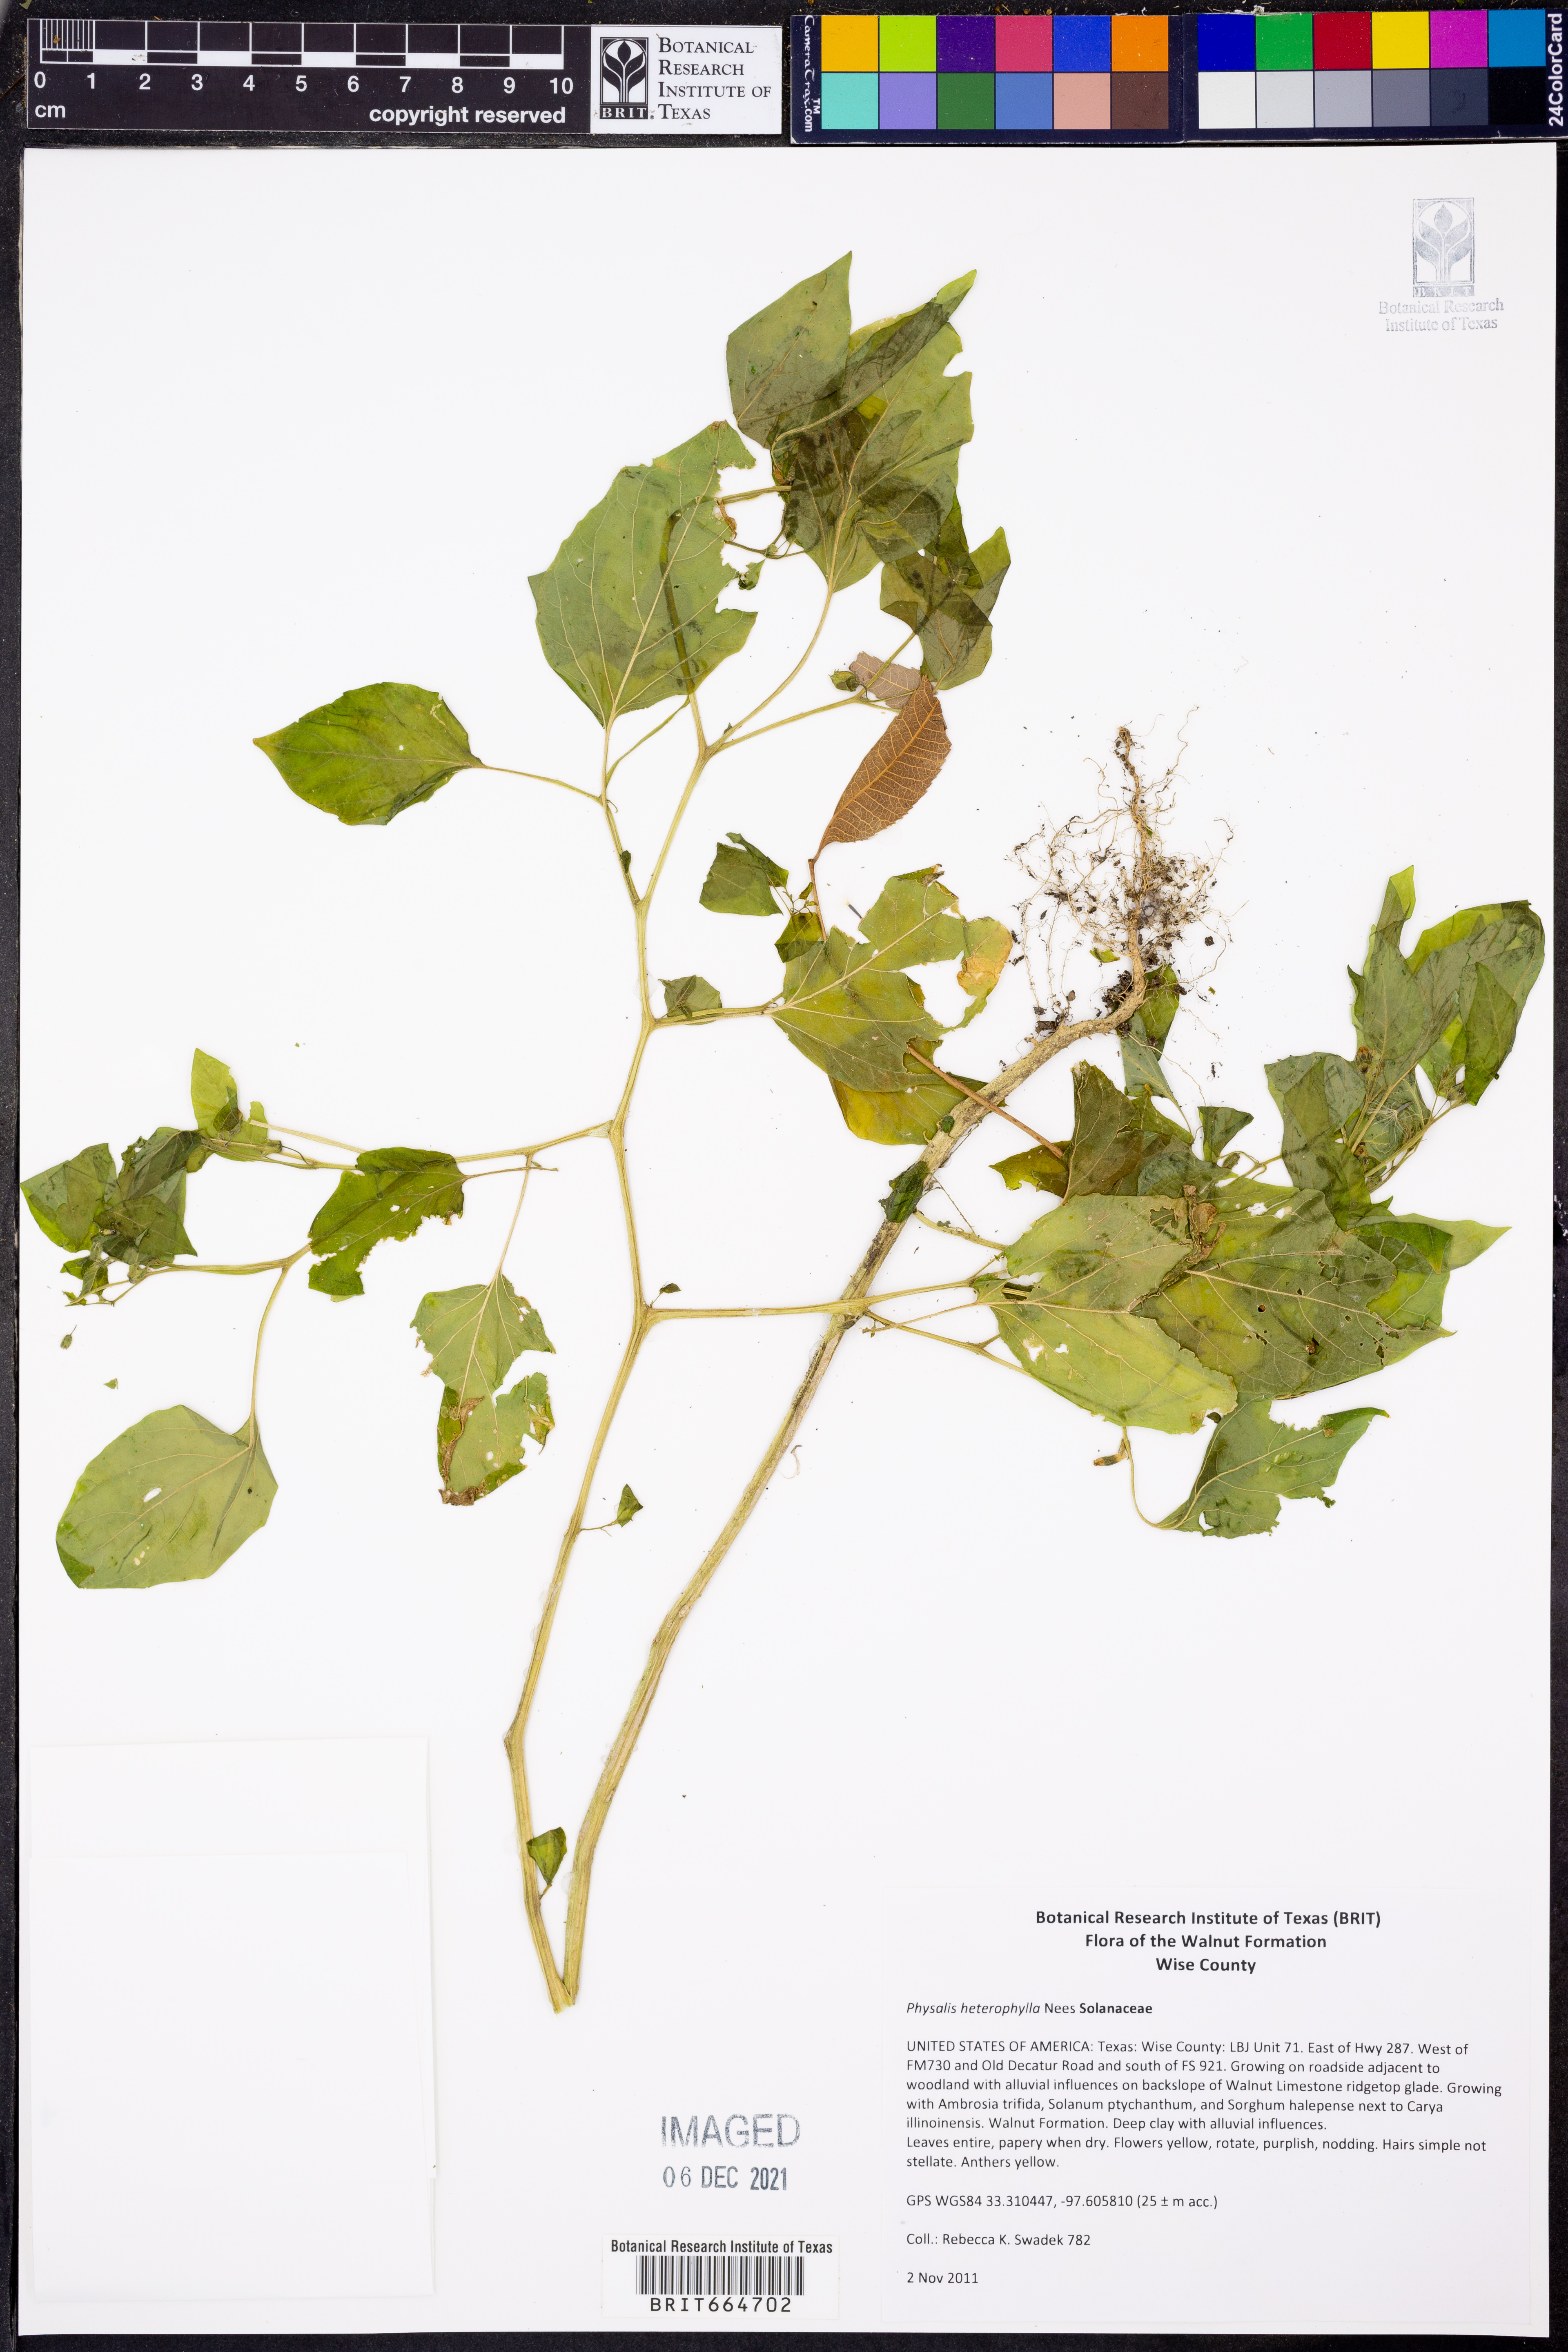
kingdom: Plantae
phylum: Tracheophyta
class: Magnoliopsida
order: Solanales
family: Solanaceae
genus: Physalis
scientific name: Physalis heterophylla
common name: Clammy ground-cherry
